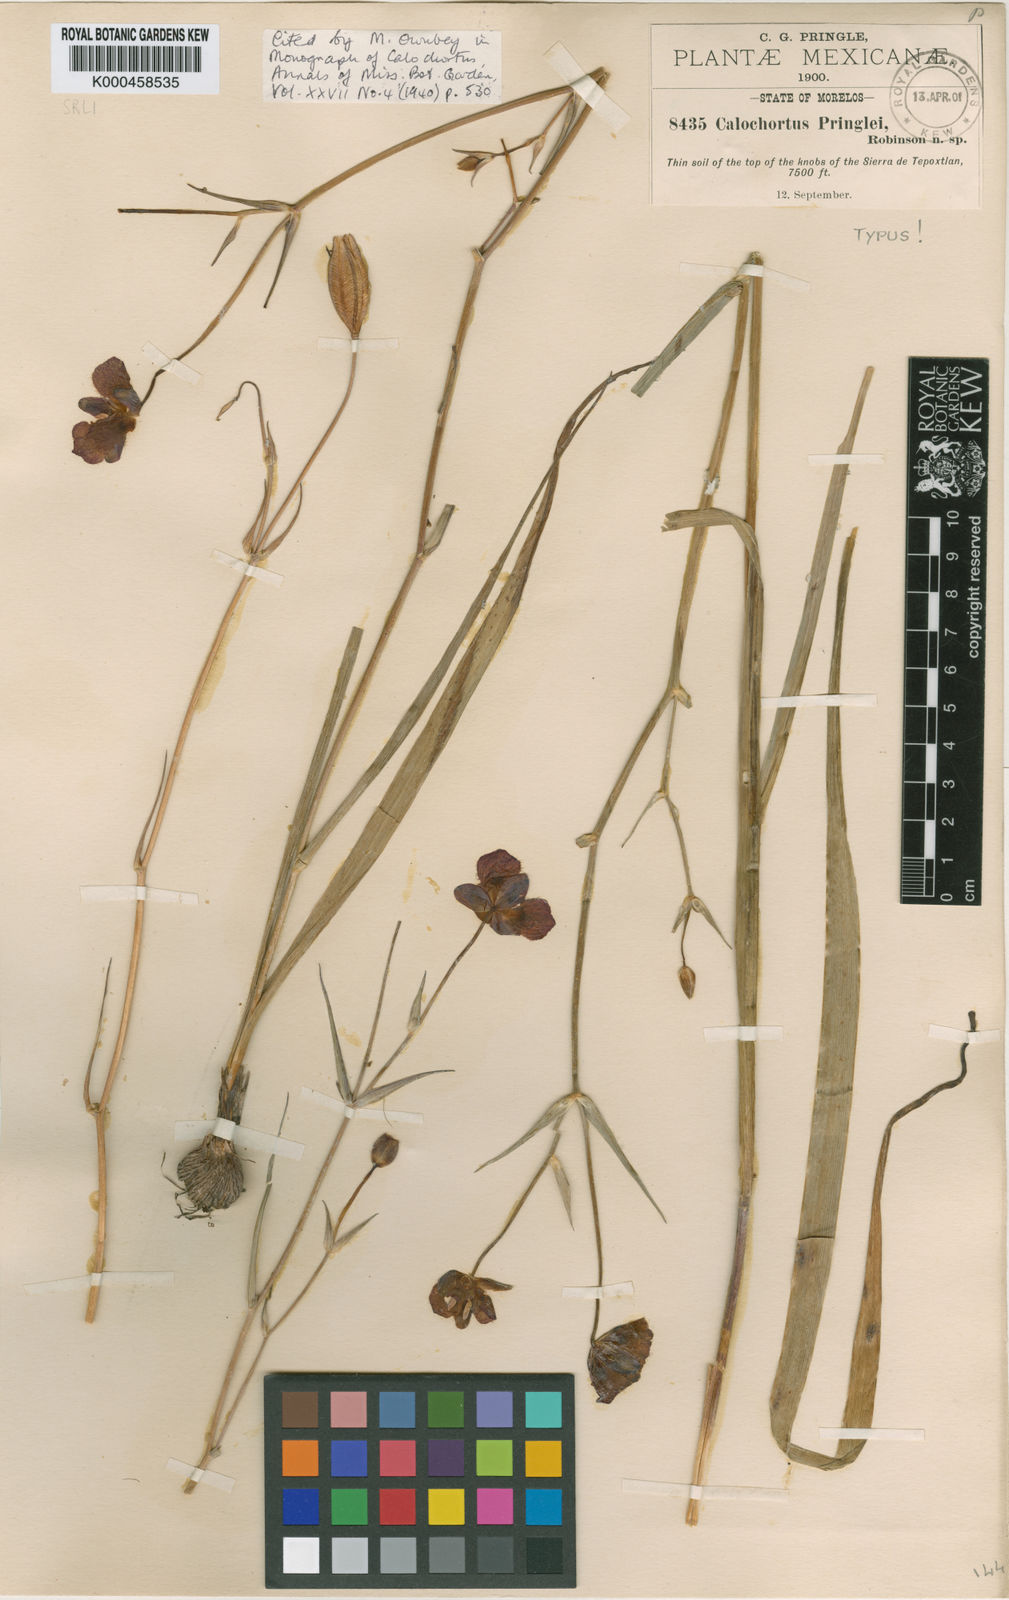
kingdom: Plantae
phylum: Tracheophyta
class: Liliopsida
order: Liliales
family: Liliaceae
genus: Calochortus
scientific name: Calochortus pringlei
